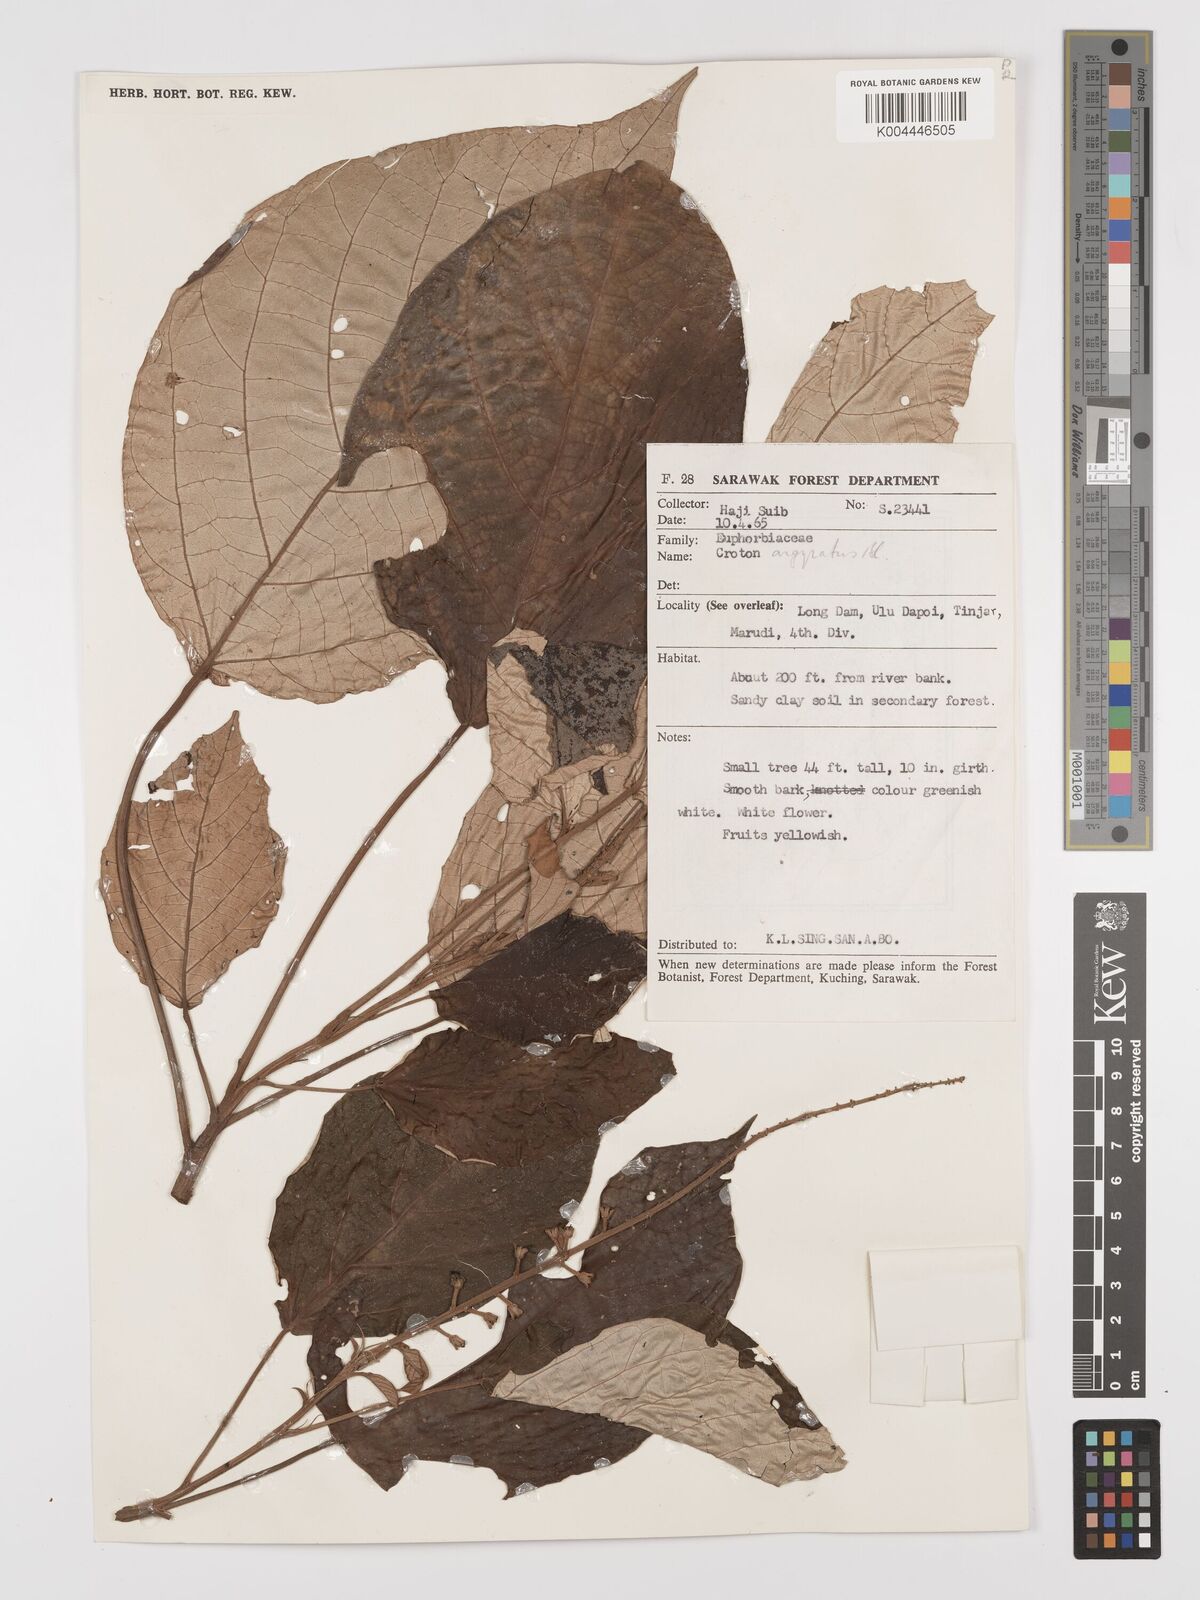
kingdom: Plantae
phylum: Tracheophyta
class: Magnoliopsida
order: Malpighiales
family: Euphorbiaceae
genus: Croton
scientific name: Croton argyratus
